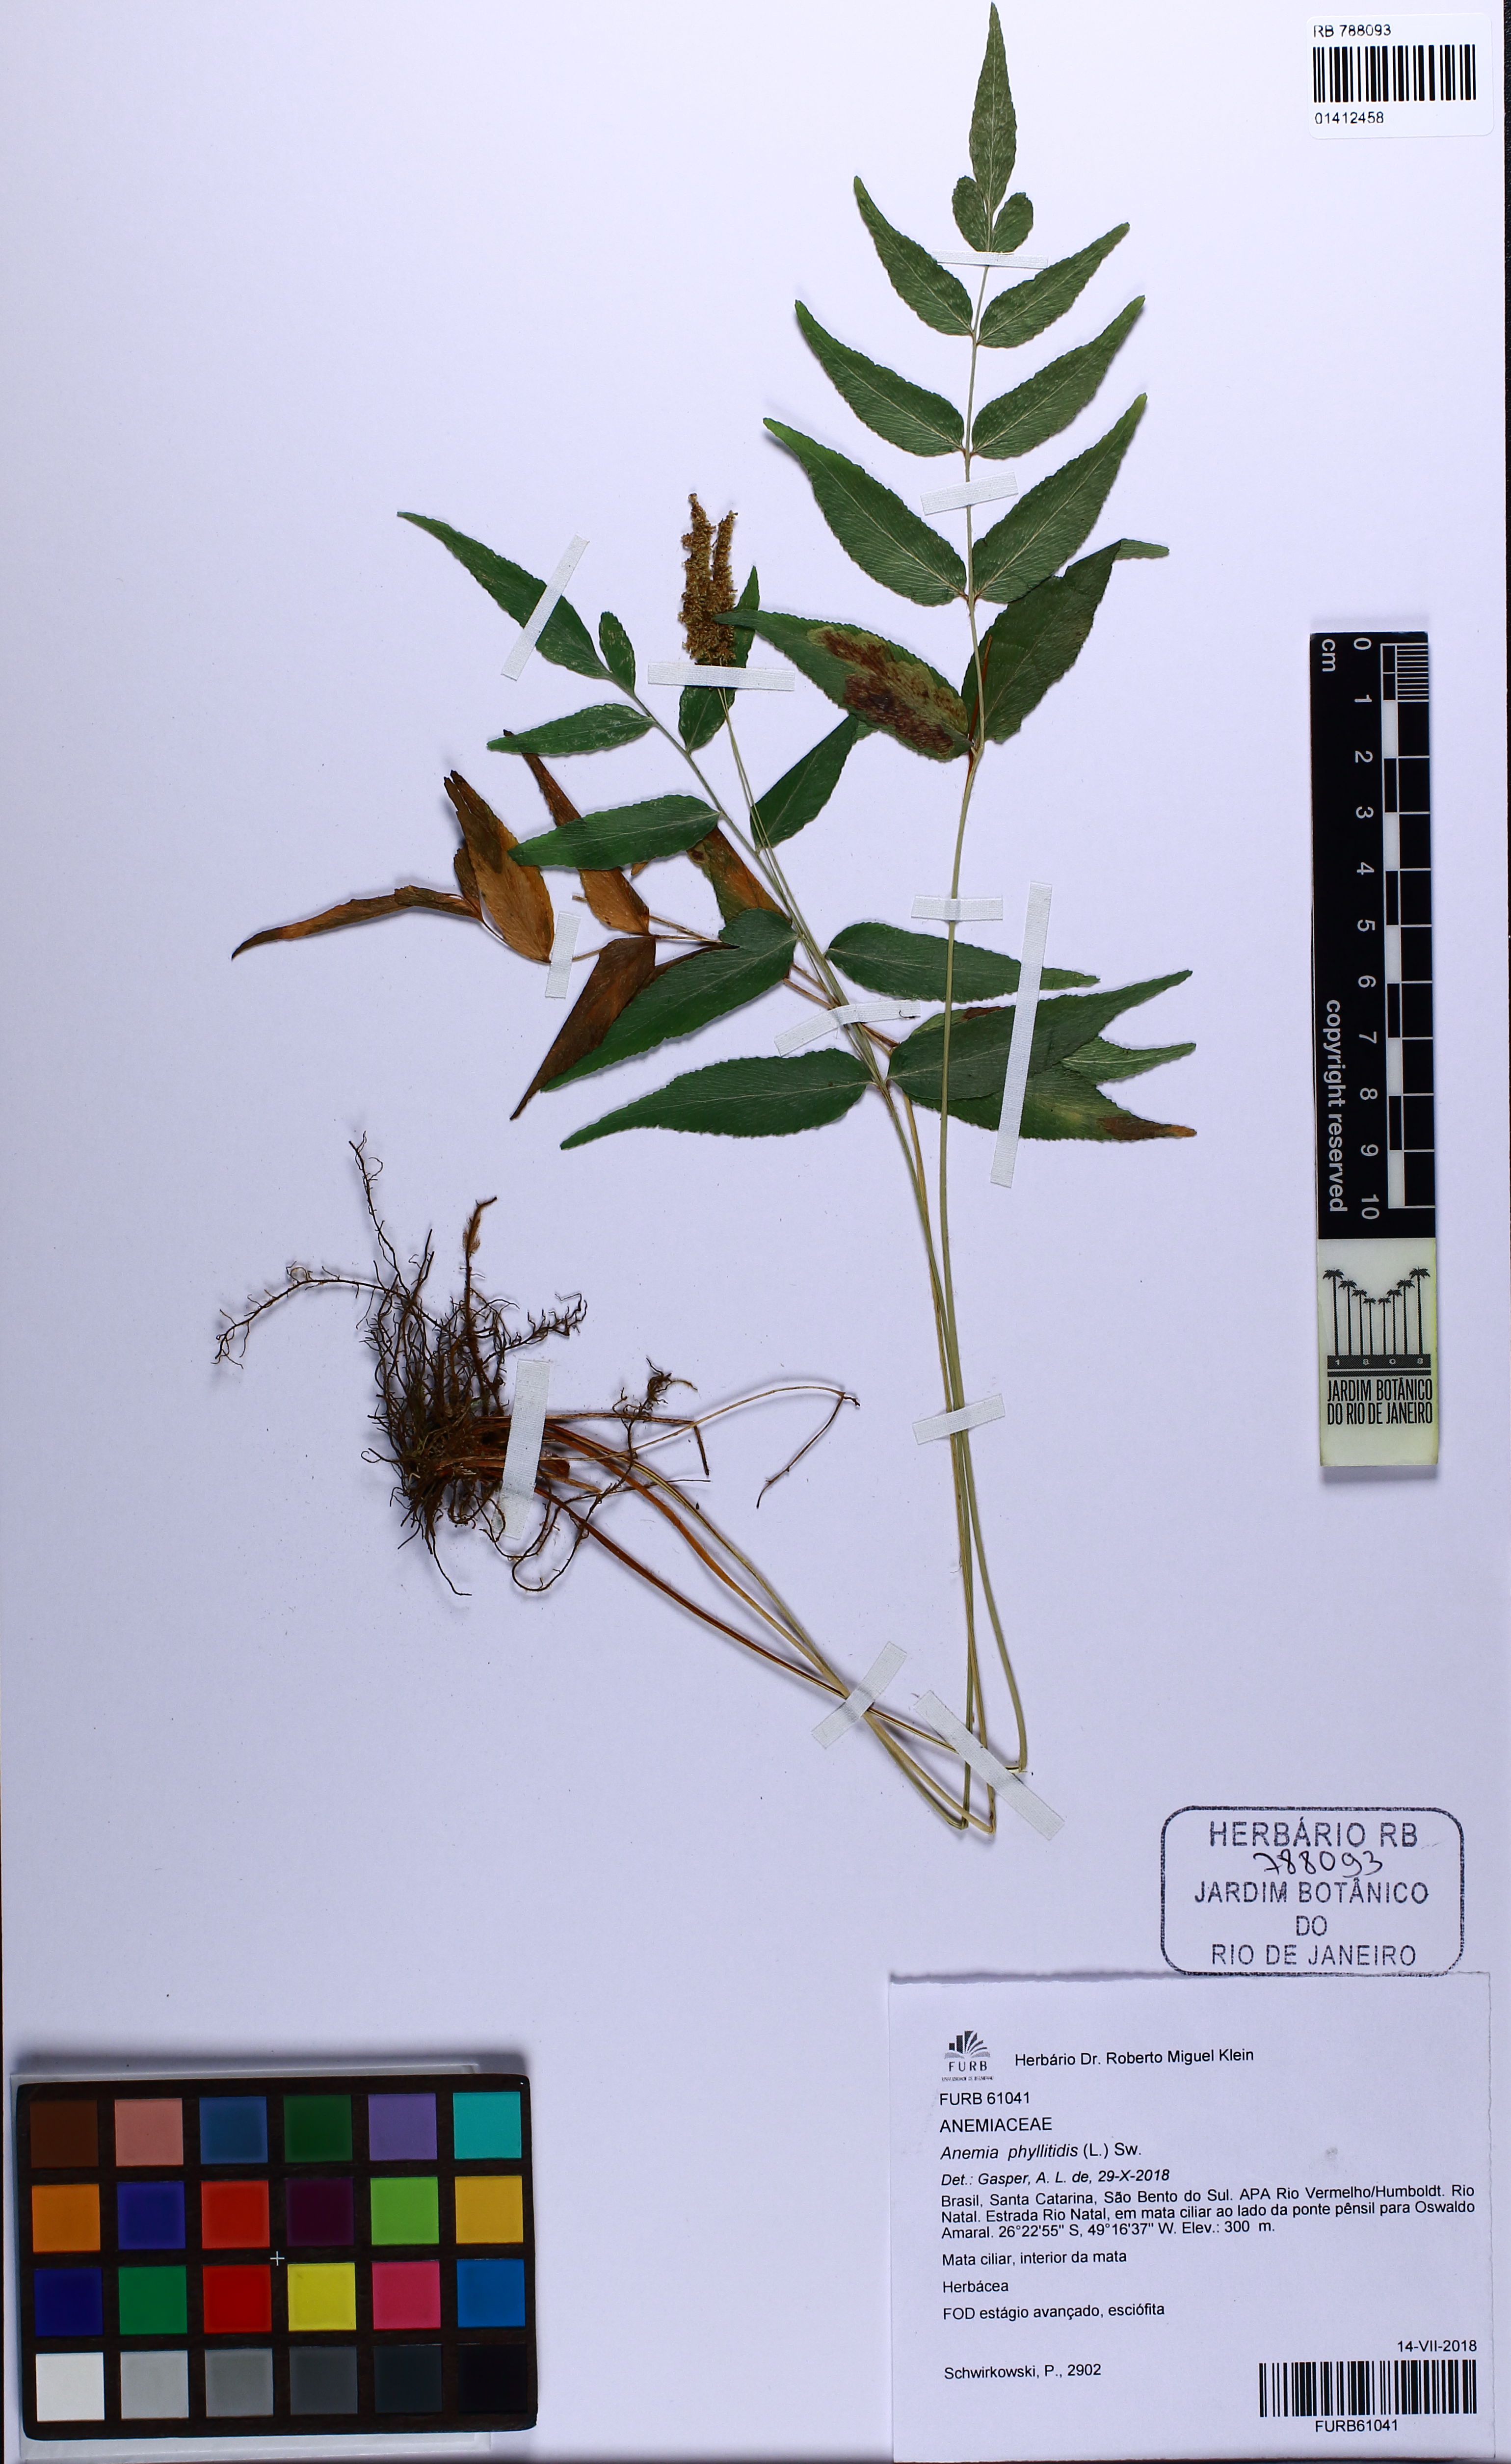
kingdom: Plantae
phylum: Tracheophyta
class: Polypodiopsida
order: Schizaeales
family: Anemiaceae
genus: Anemia
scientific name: Anemia phyllitidis
